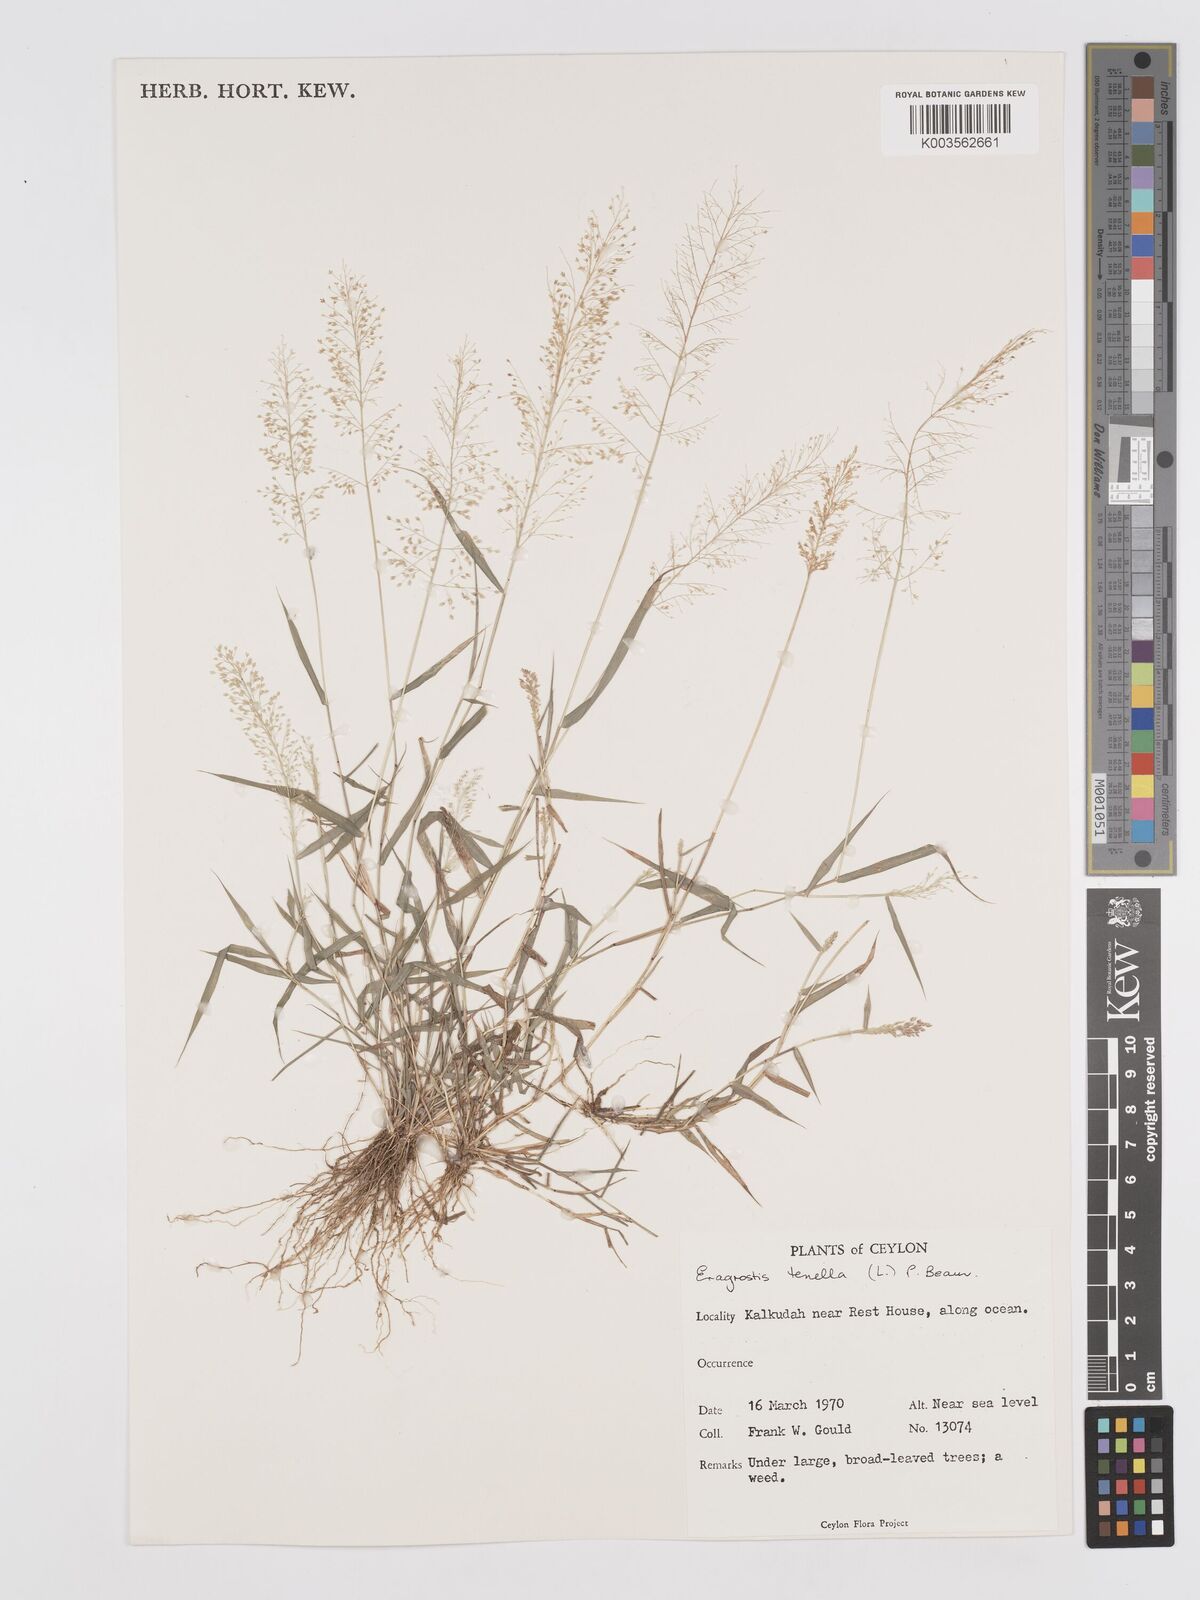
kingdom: Plantae
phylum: Tracheophyta
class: Liliopsida
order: Poales
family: Poaceae
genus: Eragrostis
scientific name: Eragrostis tenella
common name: Japanese lovegrass
